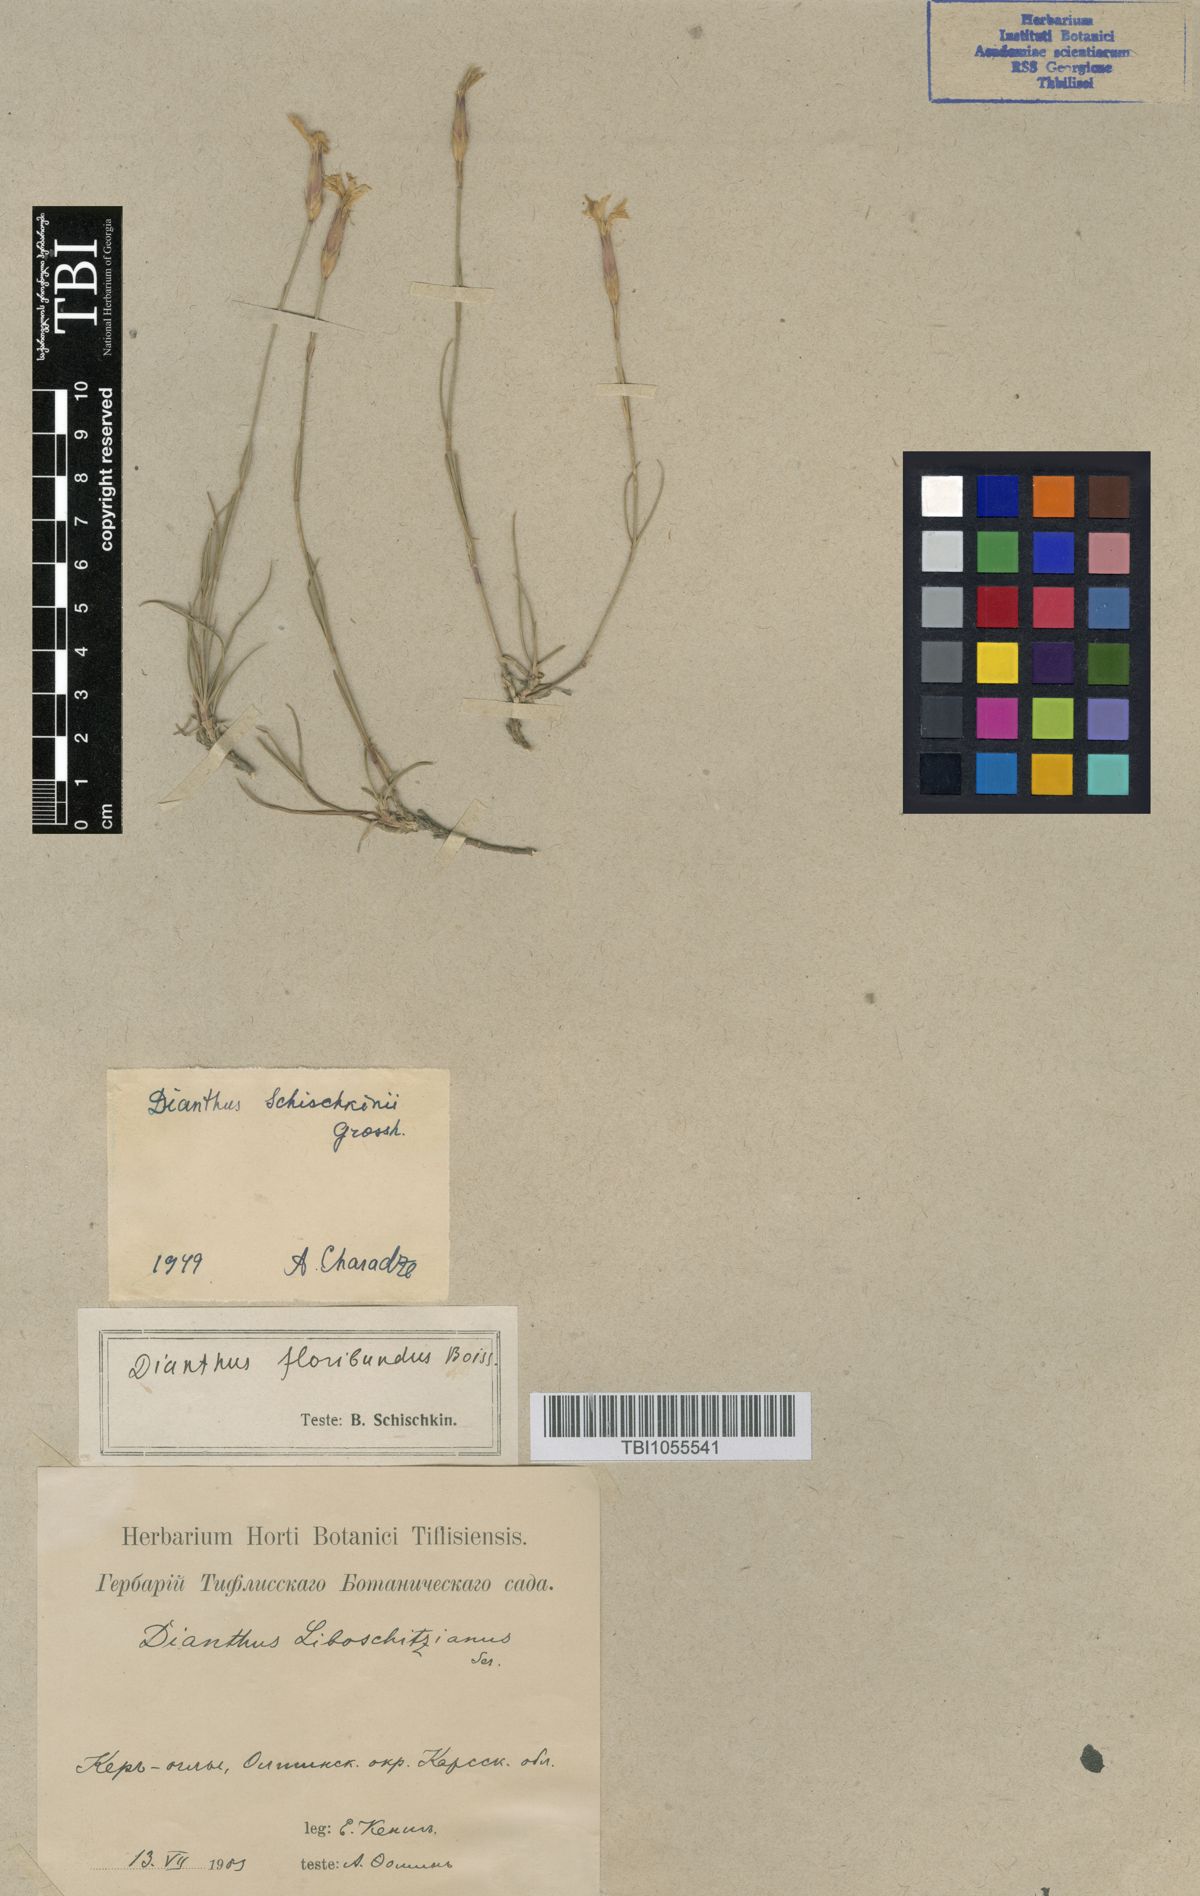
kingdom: Plantae
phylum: Tracheophyta
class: Magnoliopsida
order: Caryophyllales
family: Caryophyllaceae
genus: Dianthus
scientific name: Dianthus floribundus
